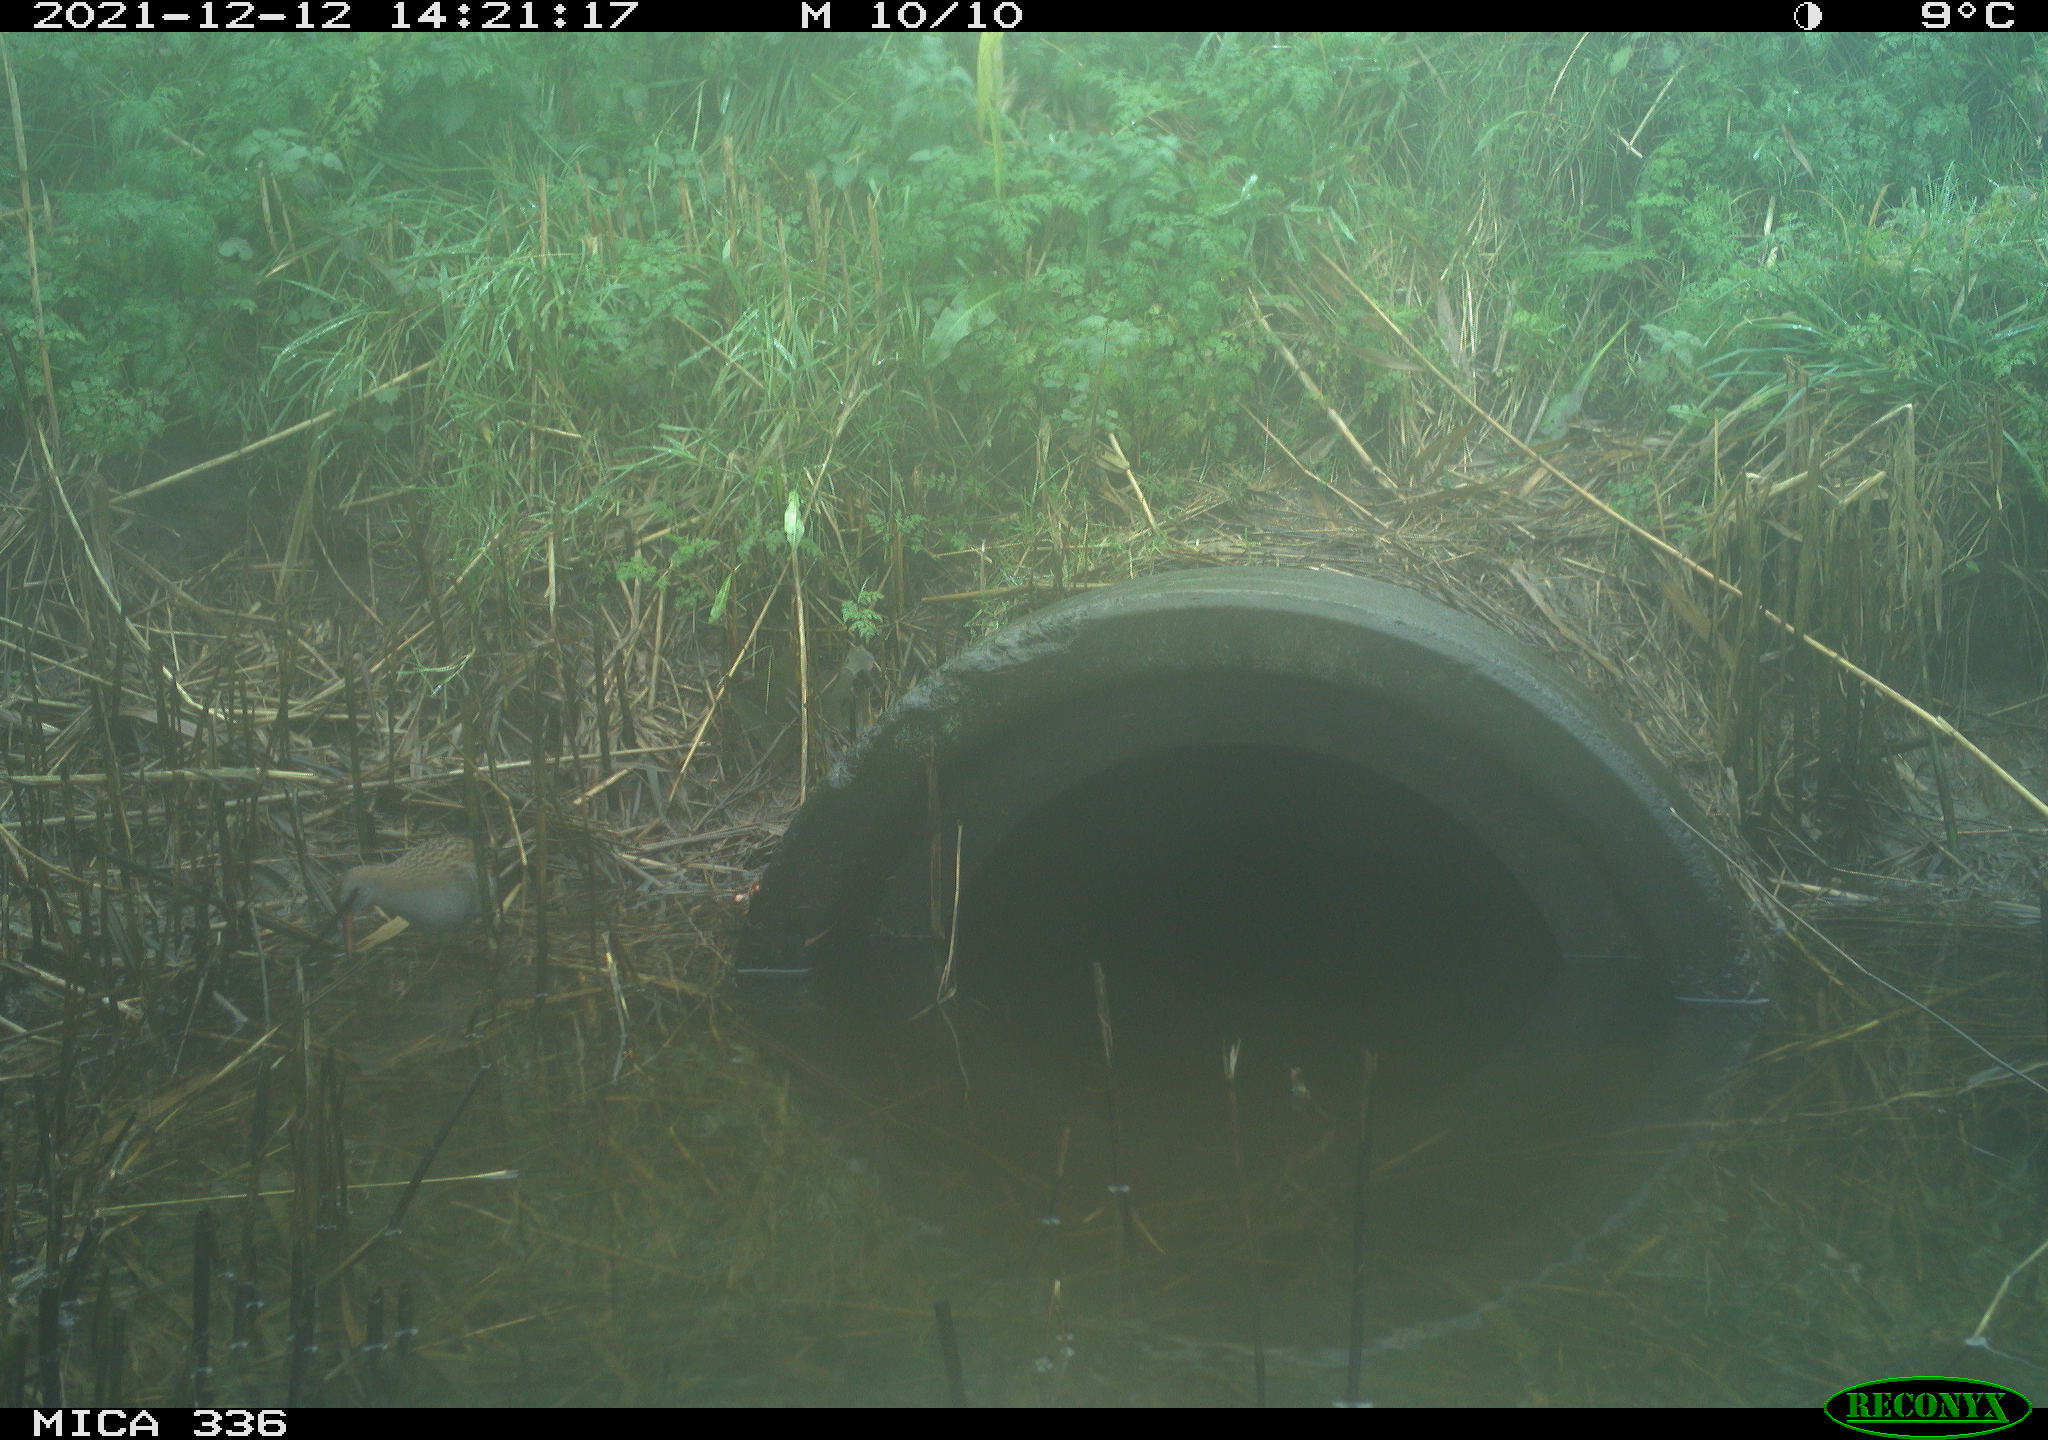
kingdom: Animalia
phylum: Chordata
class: Aves
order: Gruiformes
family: Rallidae
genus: Gallinula
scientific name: Gallinula chloropus
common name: Common moorhen
